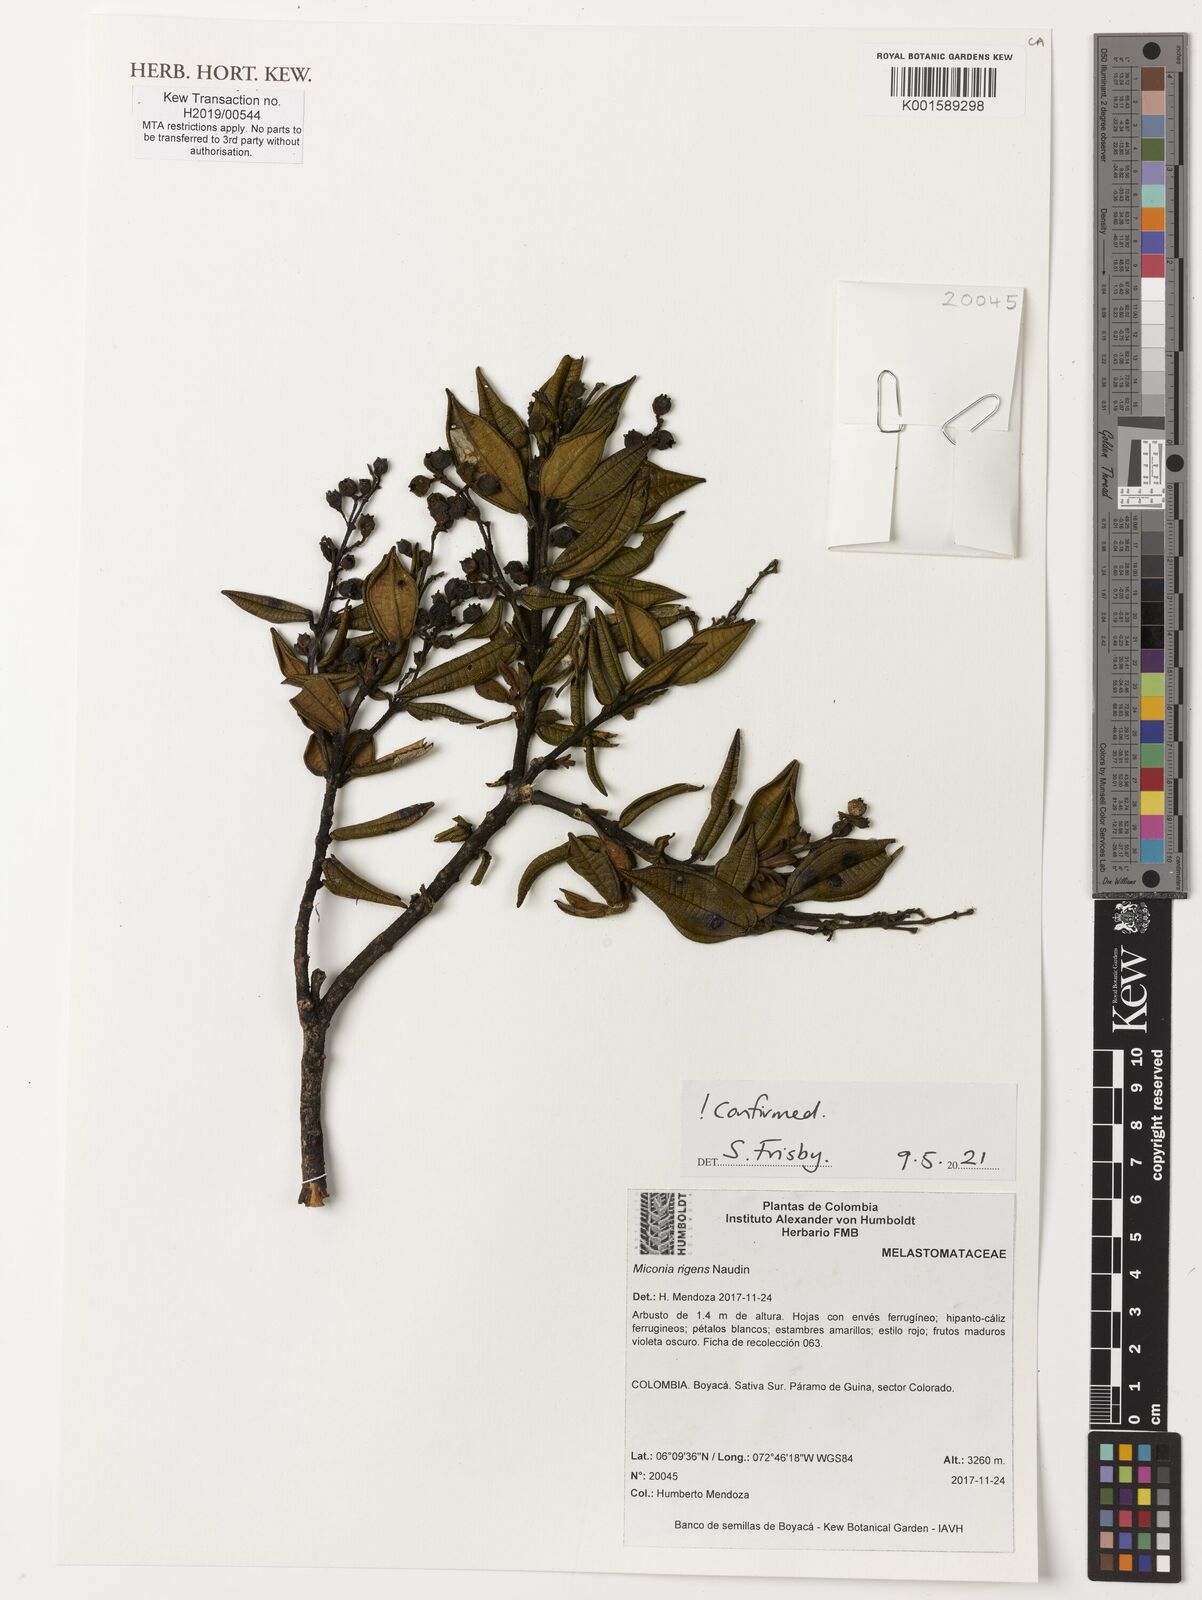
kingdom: Plantae
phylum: Tracheophyta
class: Magnoliopsida
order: Myrtales
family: Melastomataceae
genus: Miconia
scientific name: Miconia rigens
